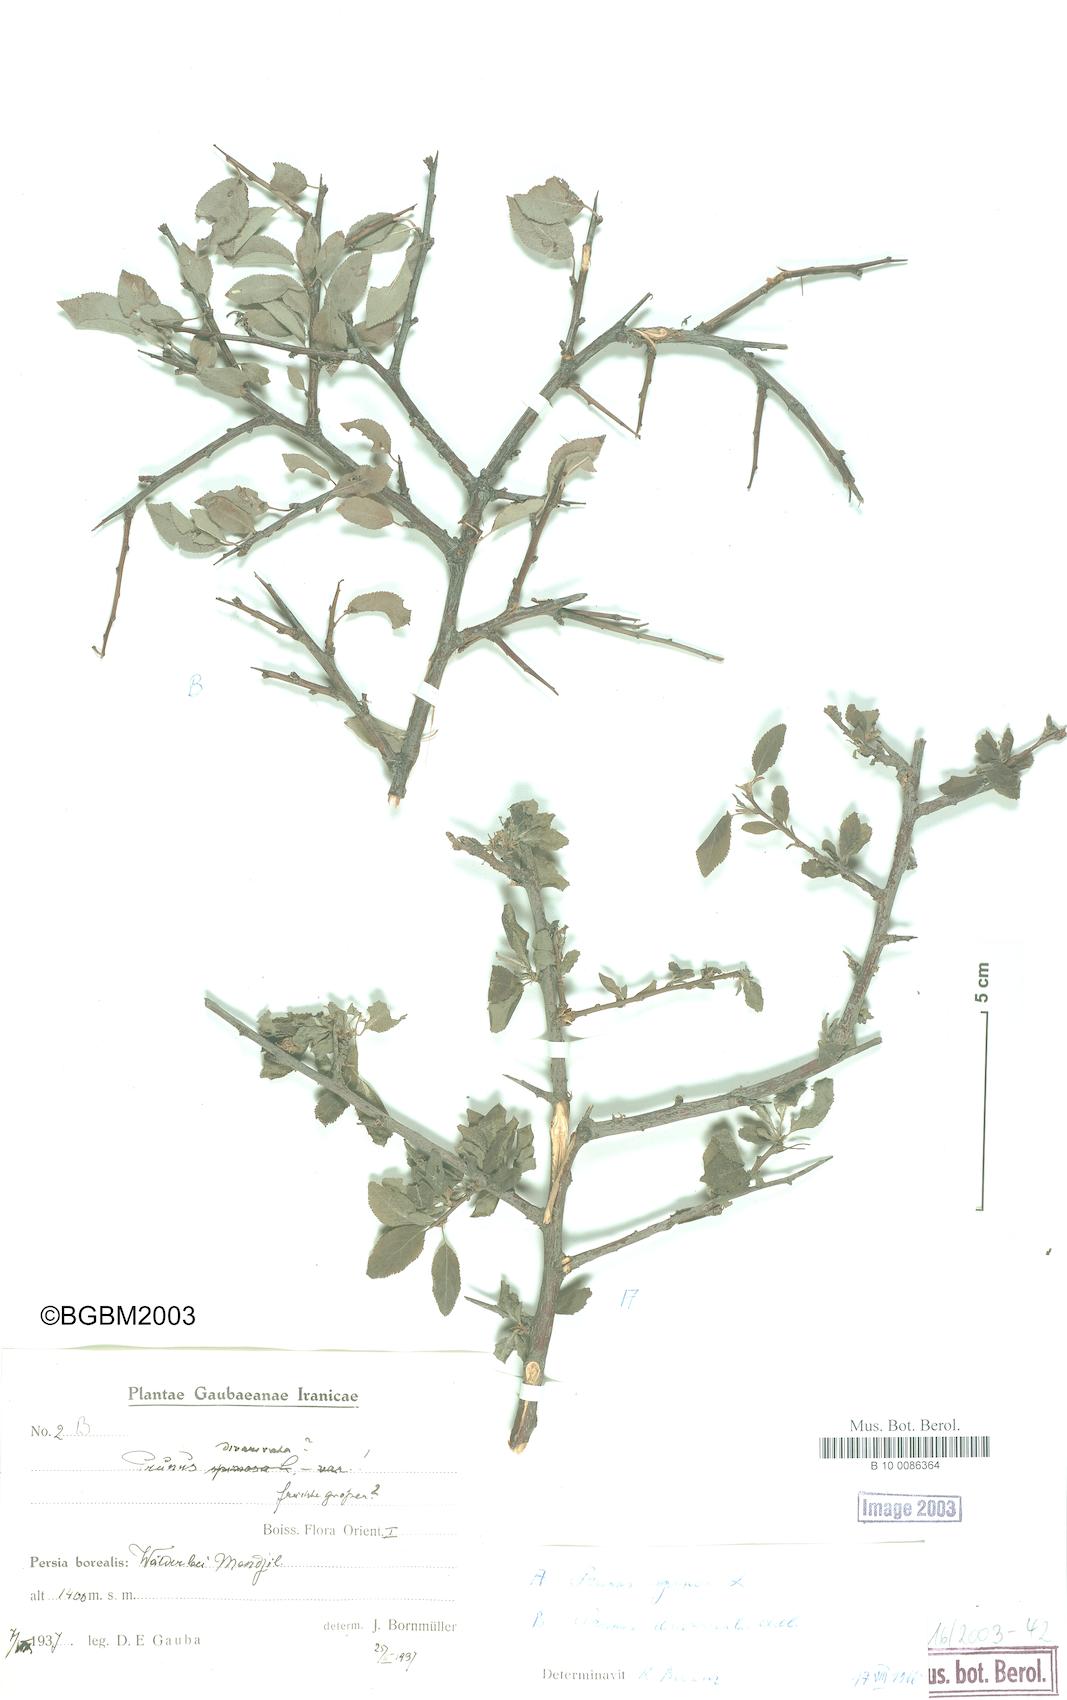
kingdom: Plantae
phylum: Tracheophyta
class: Magnoliopsida
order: Rosales
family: Rosaceae
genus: Prunus
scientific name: Prunus cerasifera
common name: Cherry plum
